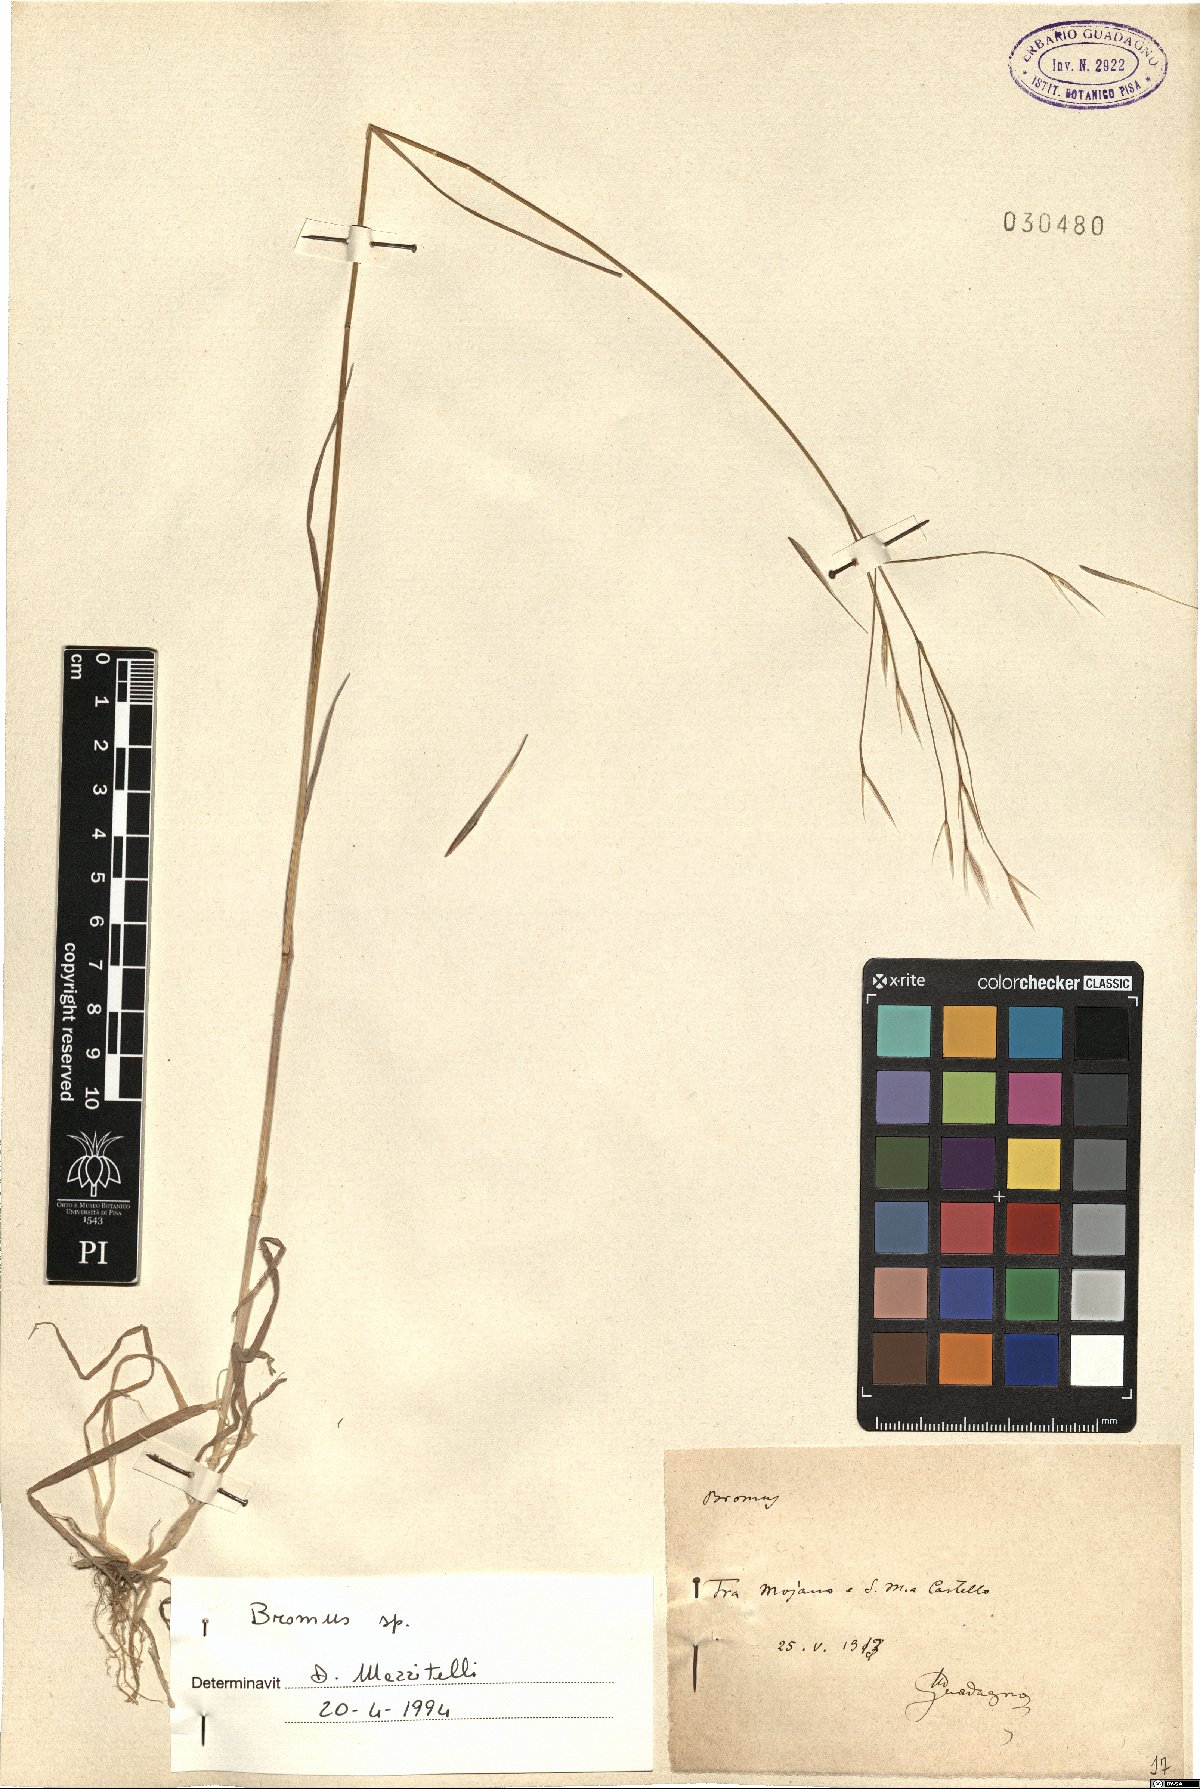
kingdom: Plantae
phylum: Tracheophyta
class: Liliopsida
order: Poales
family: Poaceae
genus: Bromus
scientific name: Bromus
